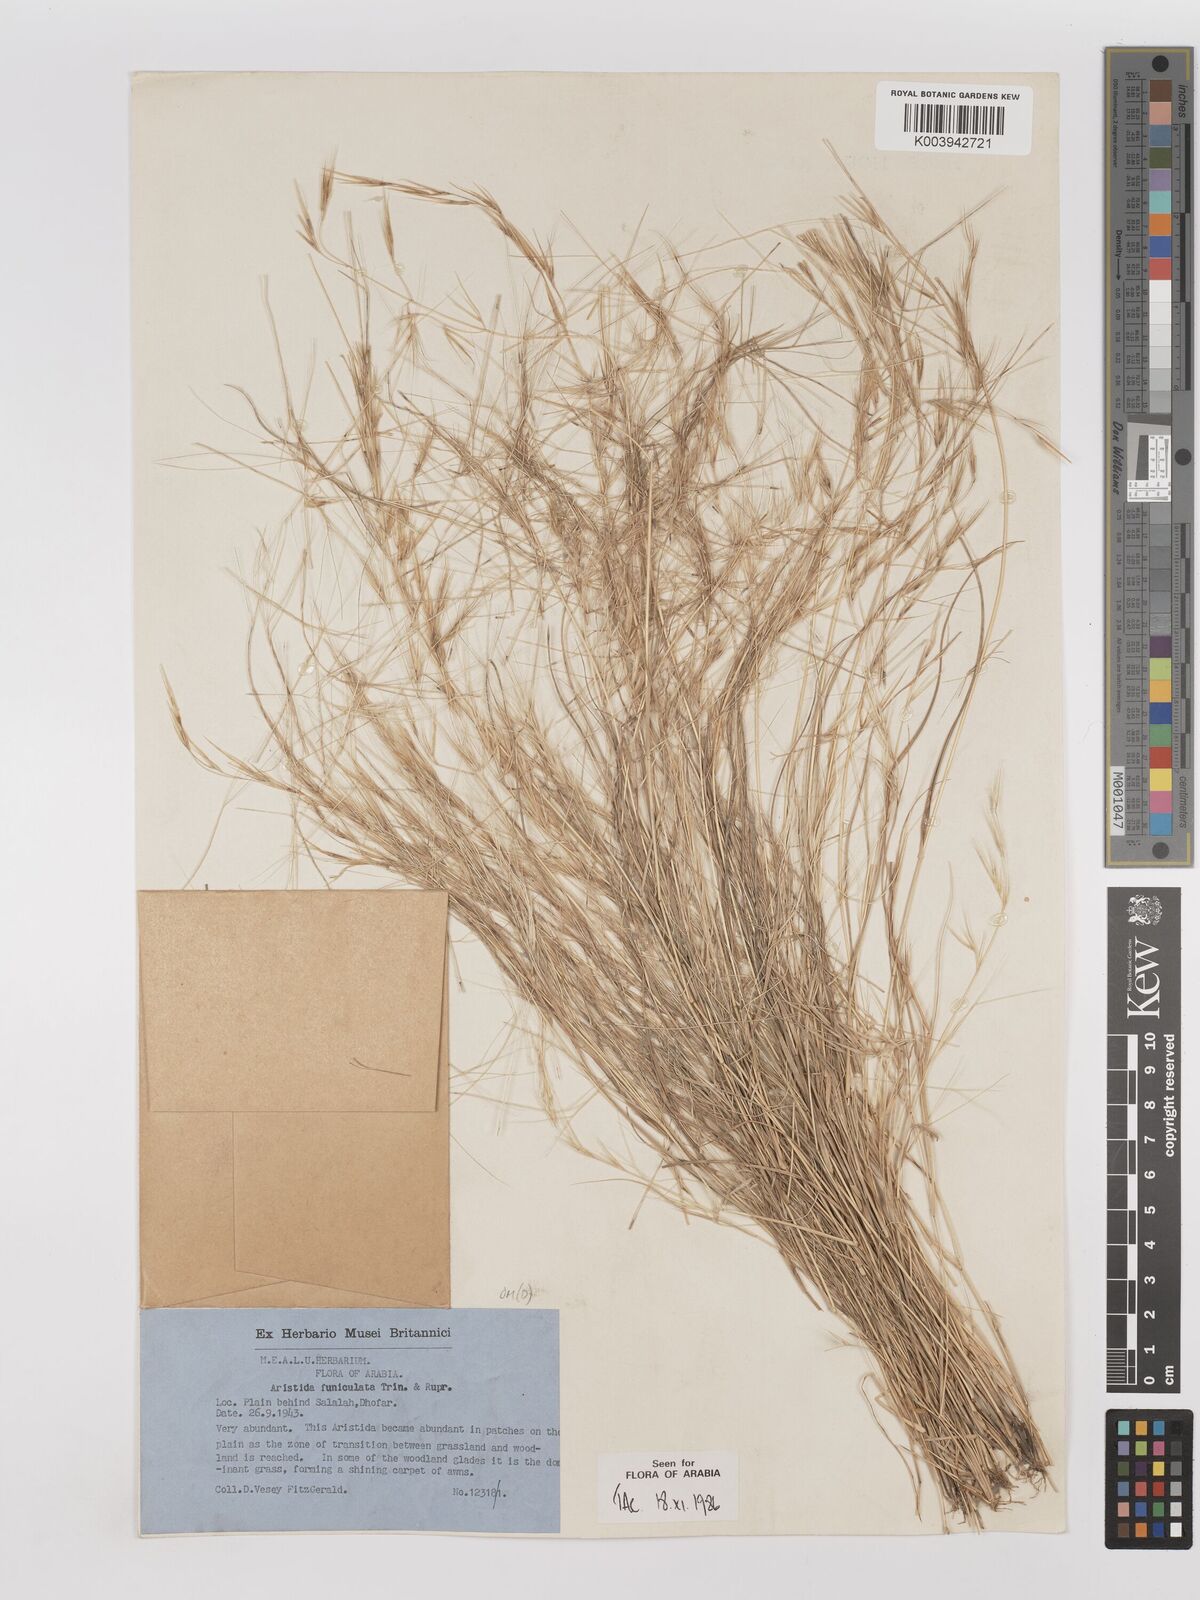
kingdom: Plantae
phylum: Tracheophyta
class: Liliopsida
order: Poales
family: Poaceae
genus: Aristida
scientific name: Aristida funiculata
